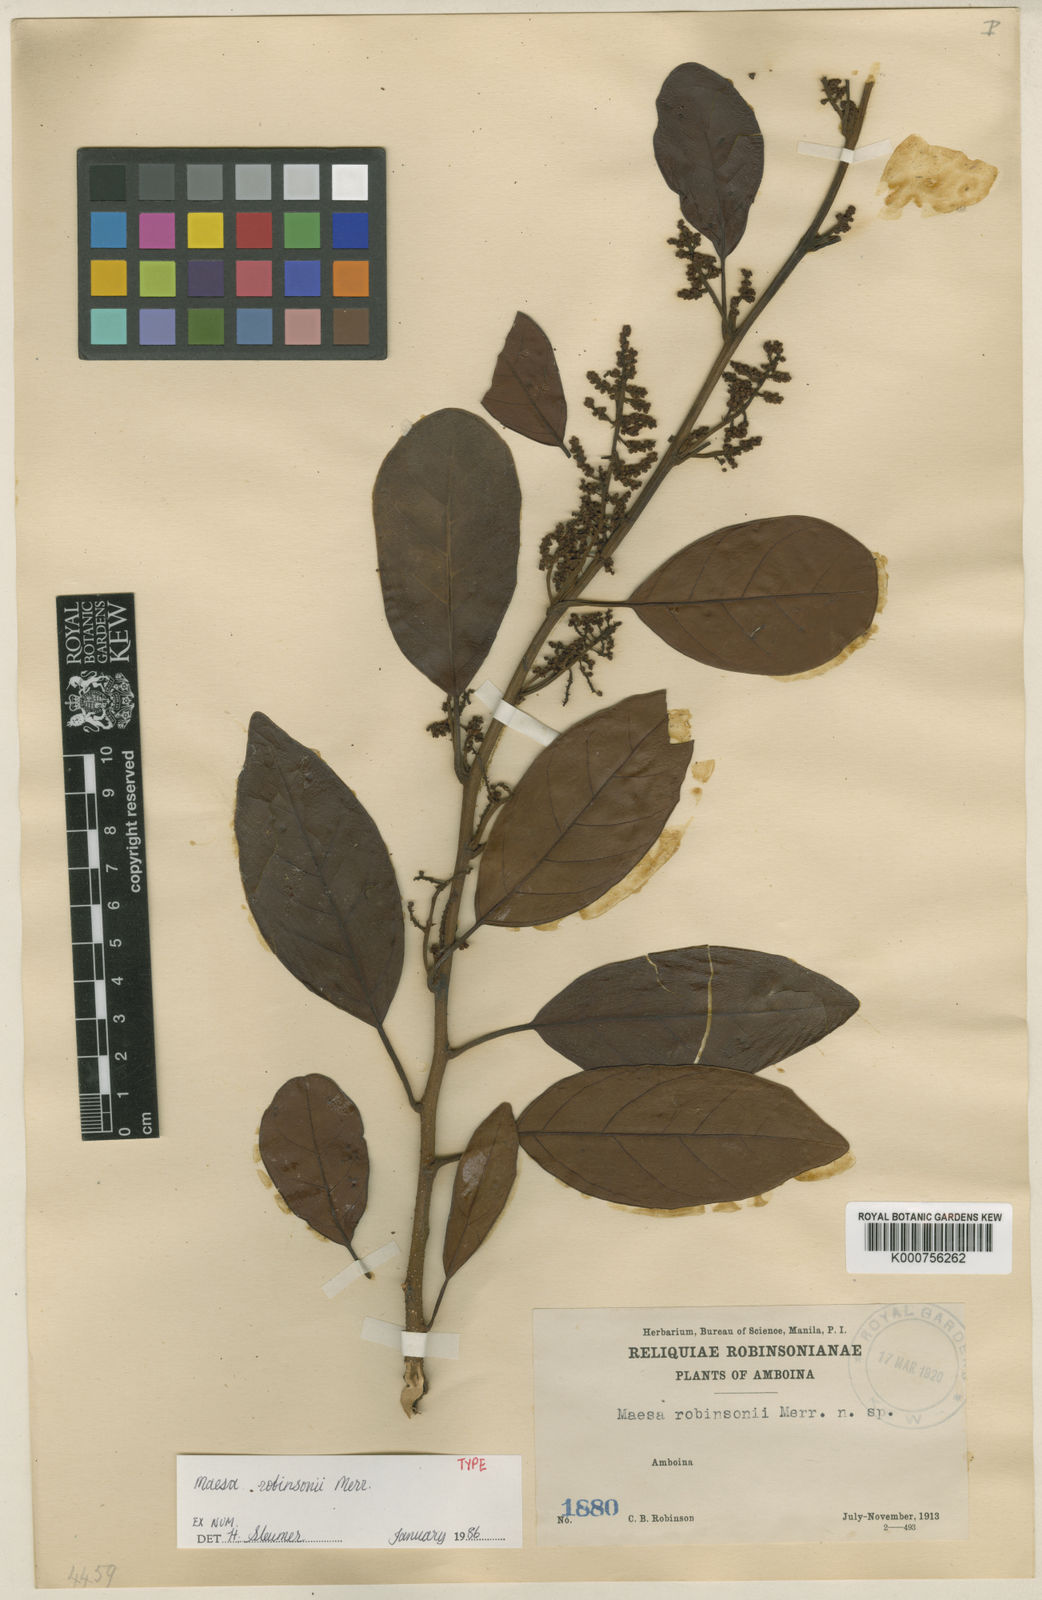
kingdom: Plantae
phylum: Tracheophyta
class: Magnoliopsida
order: Ericales
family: Primulaceae
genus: Maesa
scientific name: Maesa robinsonii
